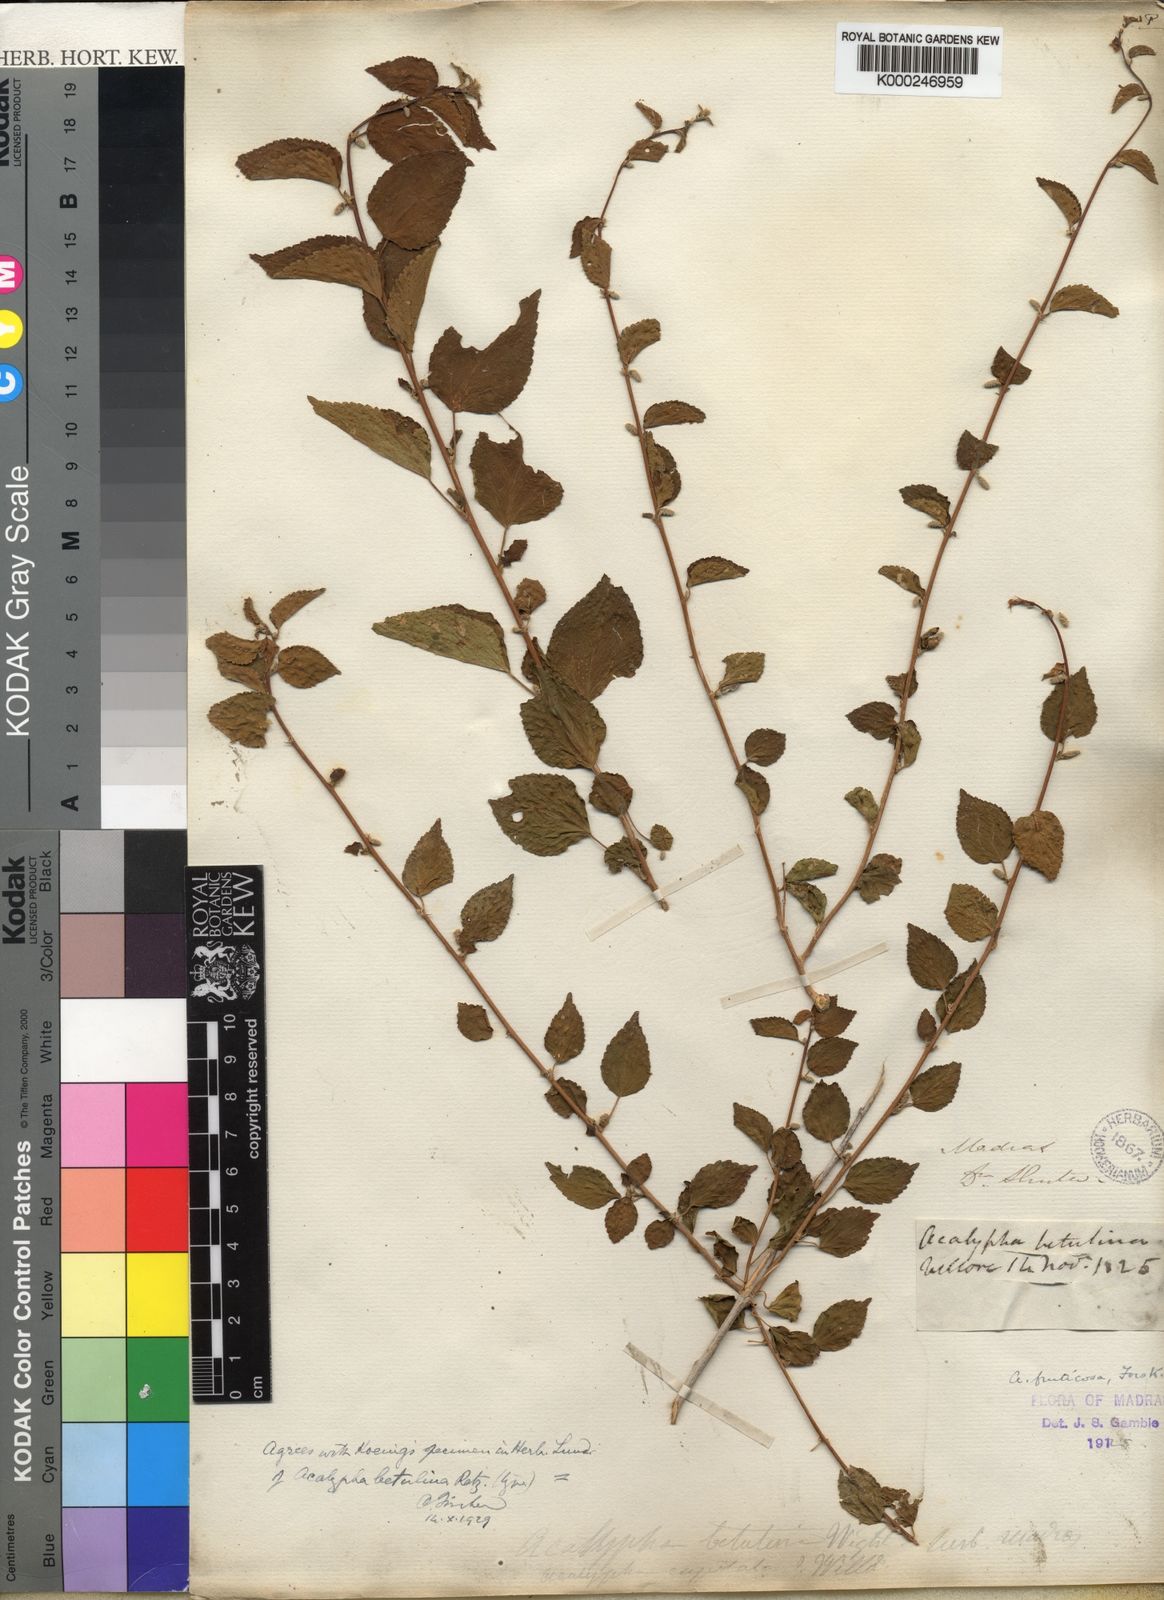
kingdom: Plantae
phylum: Tracheophyta
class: Magnoliopsida
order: Malpighiales
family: Euphorbiaceae
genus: Acalypha
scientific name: Acalypha fruticosa
